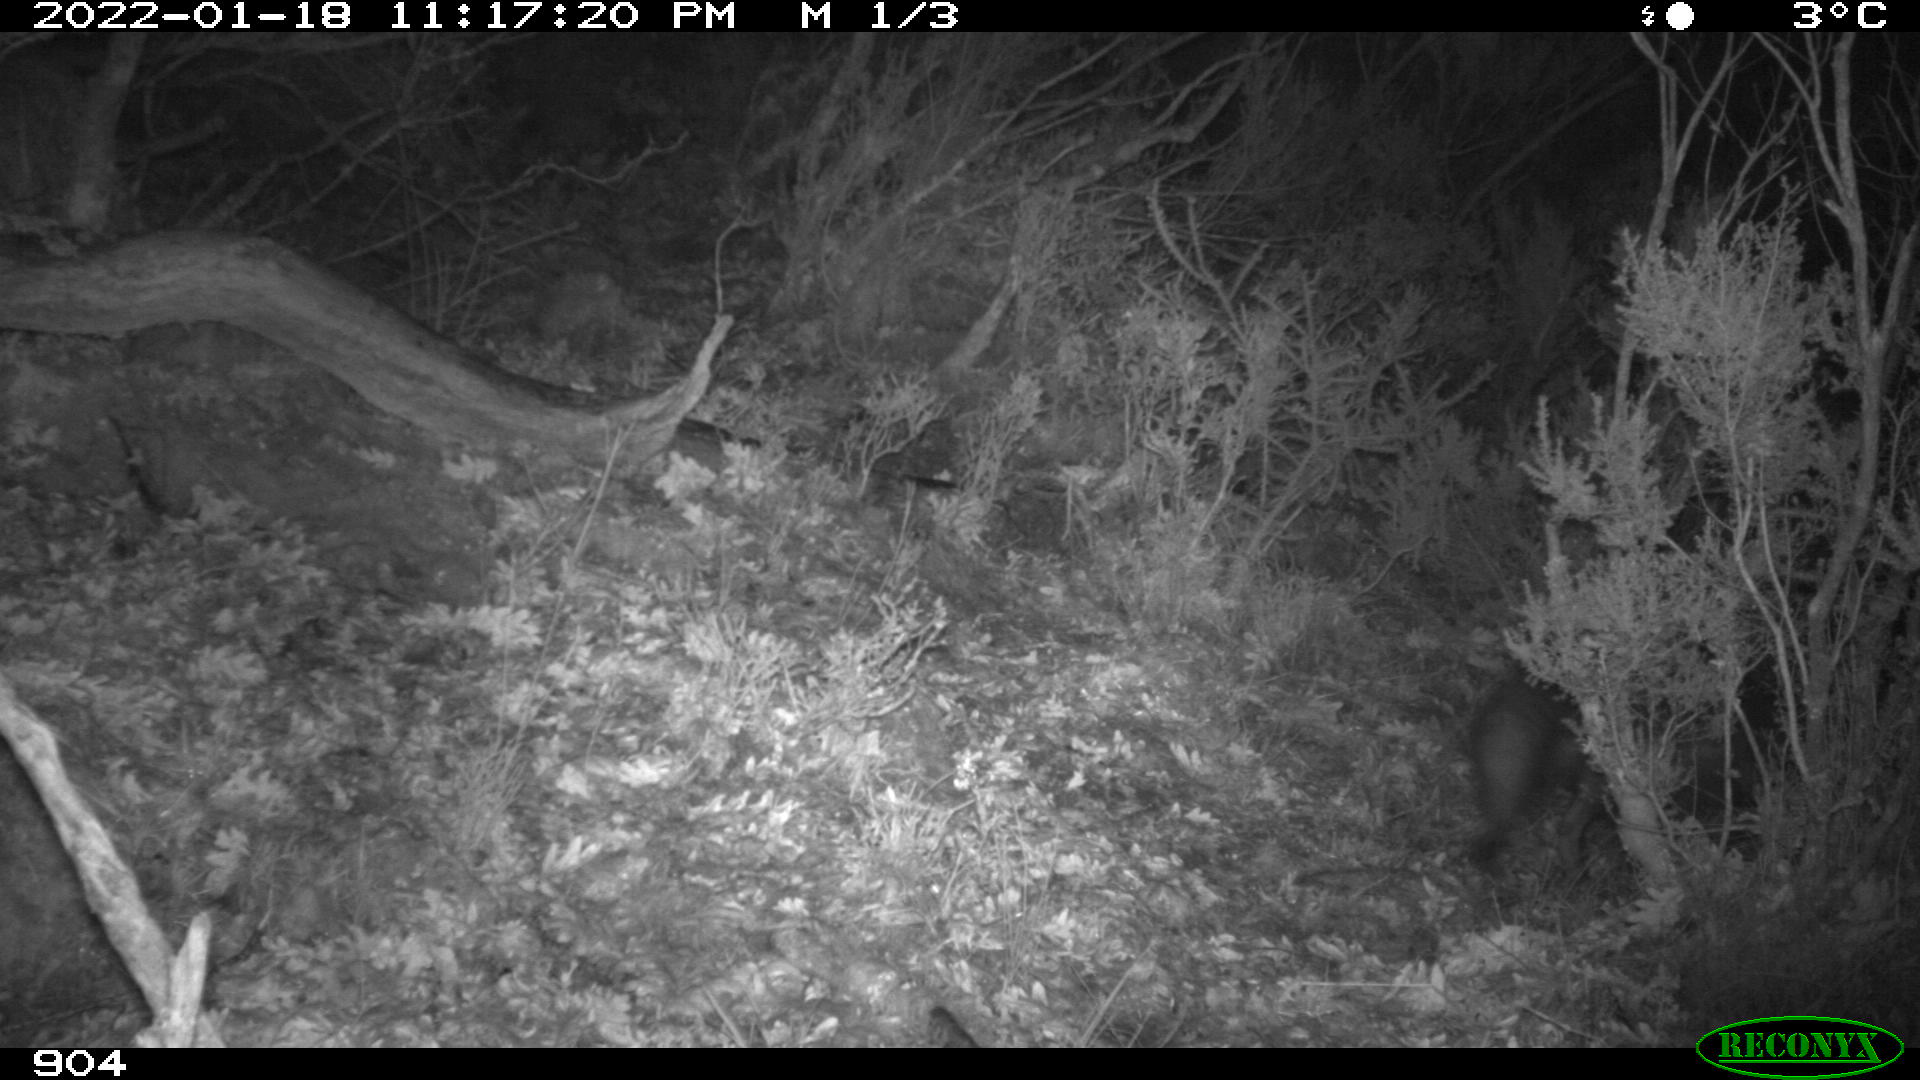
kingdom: Animalia
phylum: Chordata
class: Mammalia
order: Carnivora
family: Canidae
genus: Vulpes
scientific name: Vulpes vulpes
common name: Red fox
